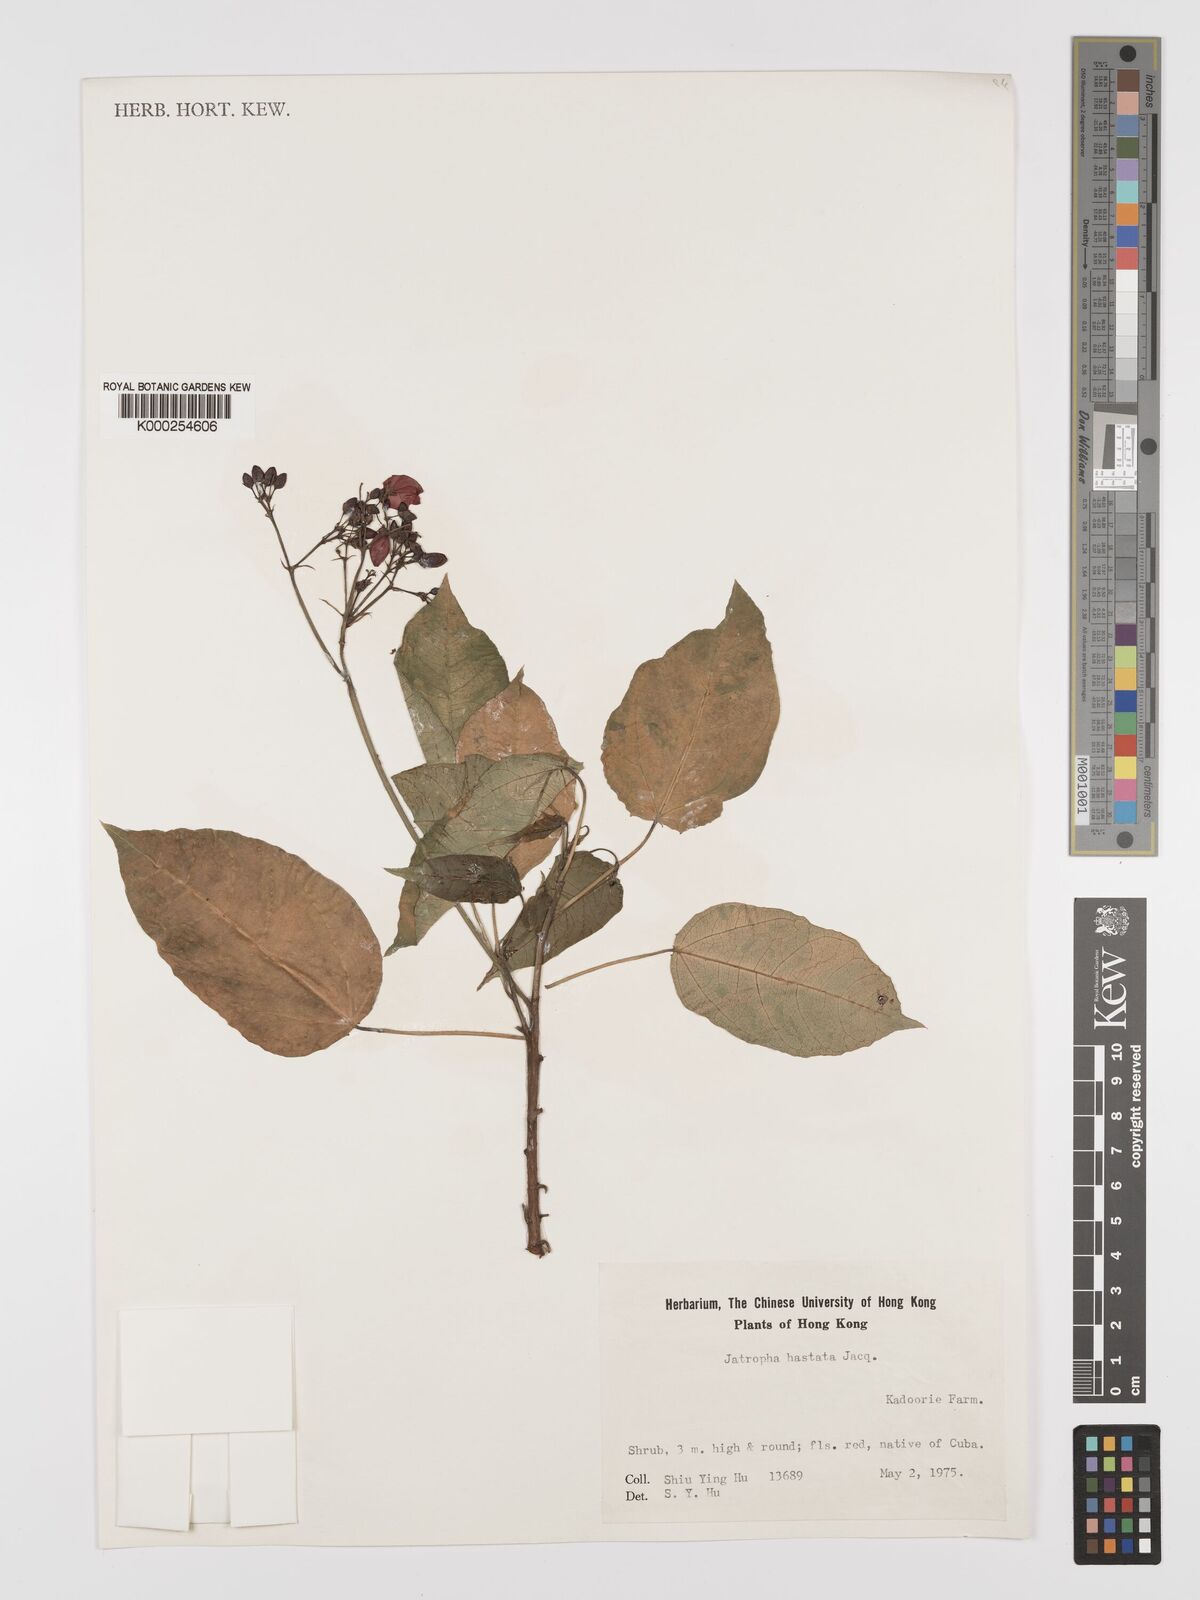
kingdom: Plantae
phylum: Tracheophyta
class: Magnoliopsida
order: Malpighiales
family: Euphorbiaceae
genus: Jatropha
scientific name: Jatropha integerrima
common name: Peregrina
